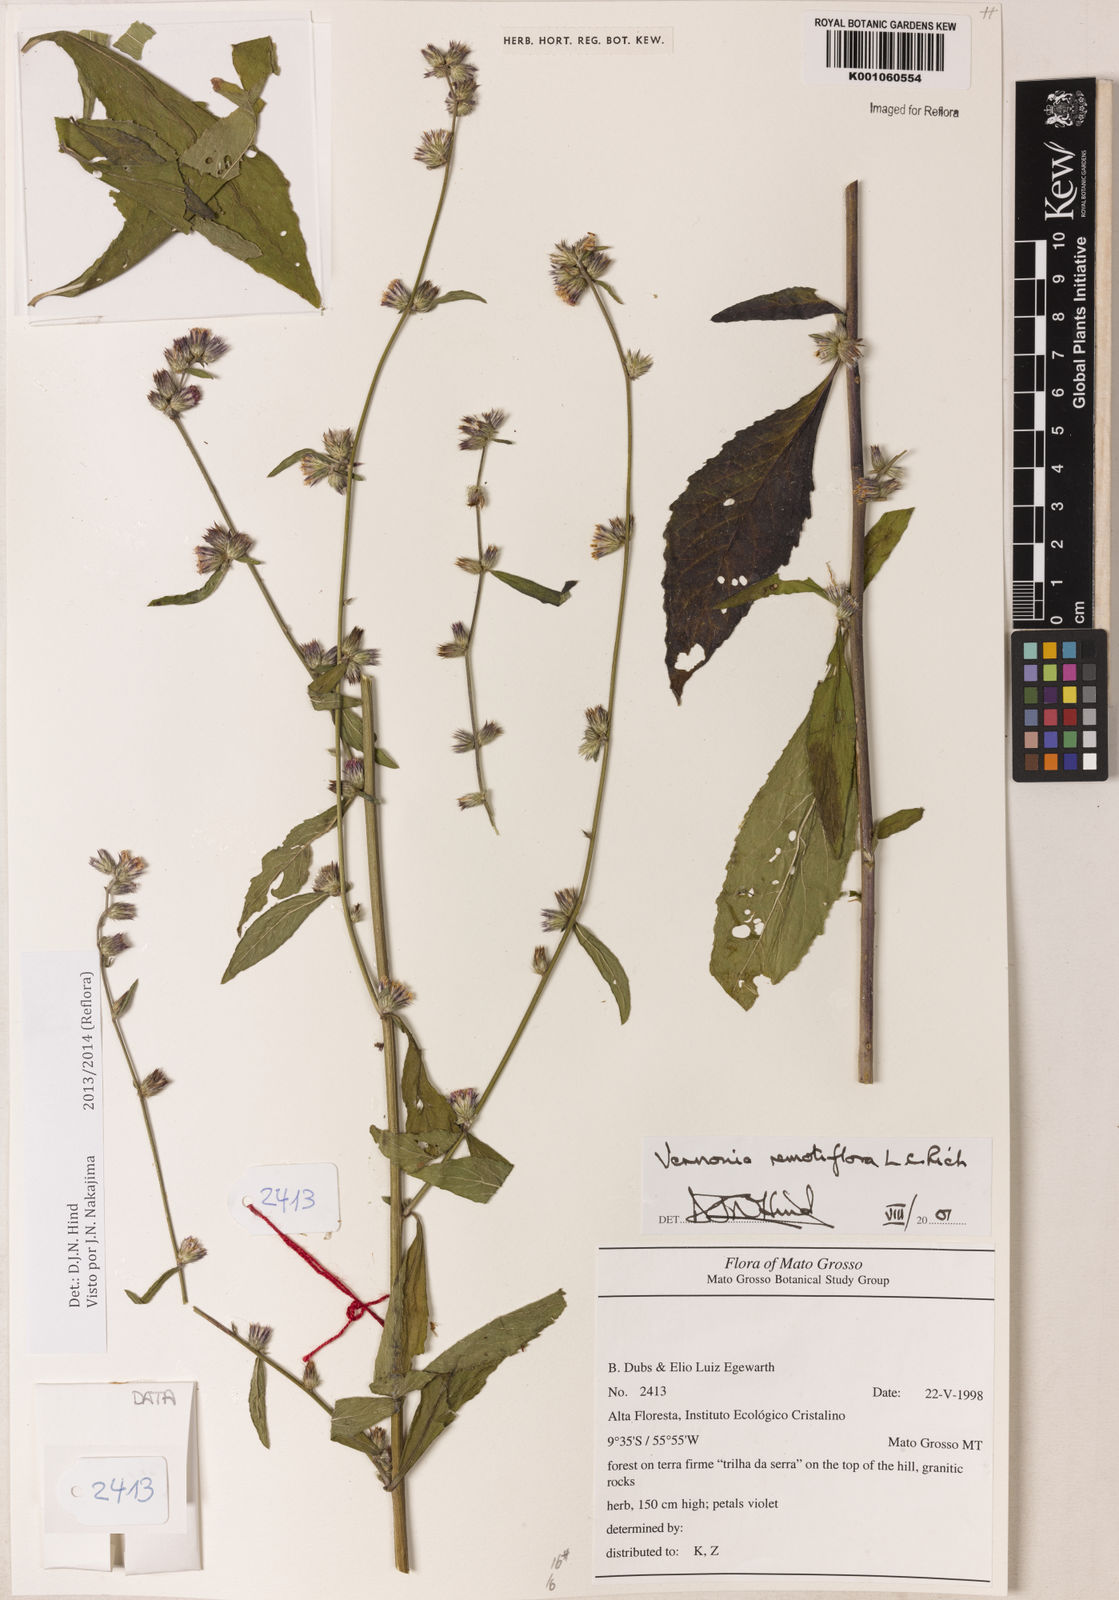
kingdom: Plantae
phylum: Tracheophyta
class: Magnoliopsida
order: Asterales
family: Asteraceae
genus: Lepidaploa
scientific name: Lepidaploa remotiflora
